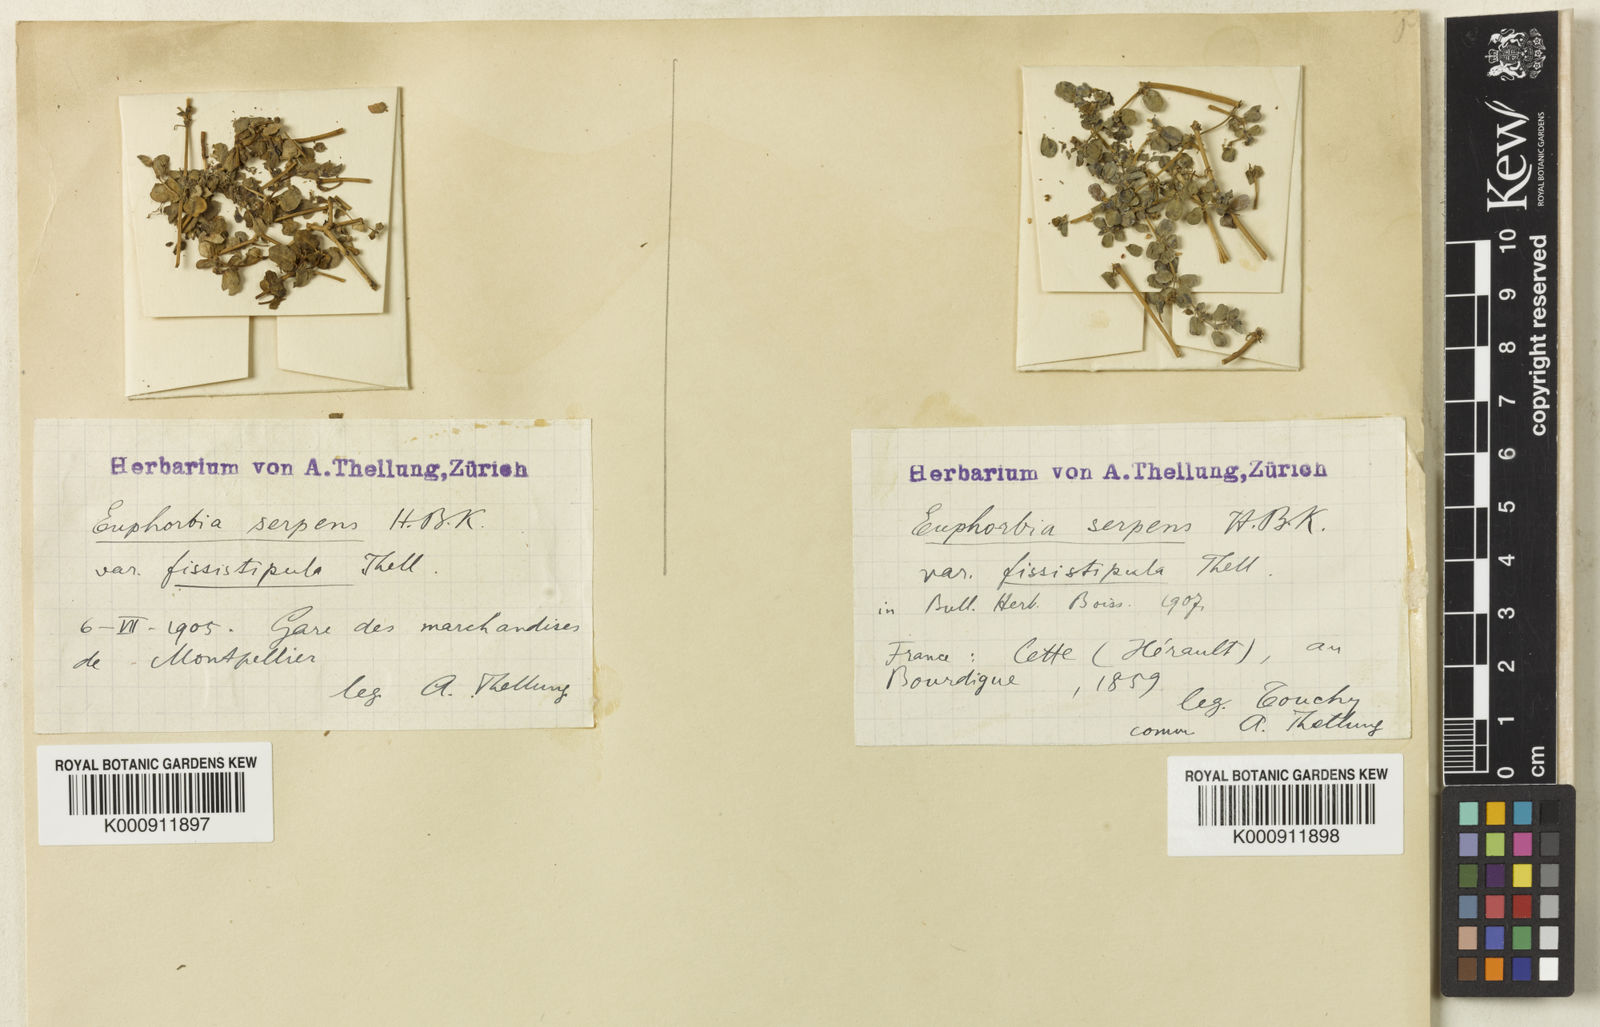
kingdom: Plantae
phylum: Tracheophyta
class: Magnoliopsida
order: Malpighiales
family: Euphorbiaceae
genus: Euphorbia
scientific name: Euphorbia serpens
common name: Matted sandmat
